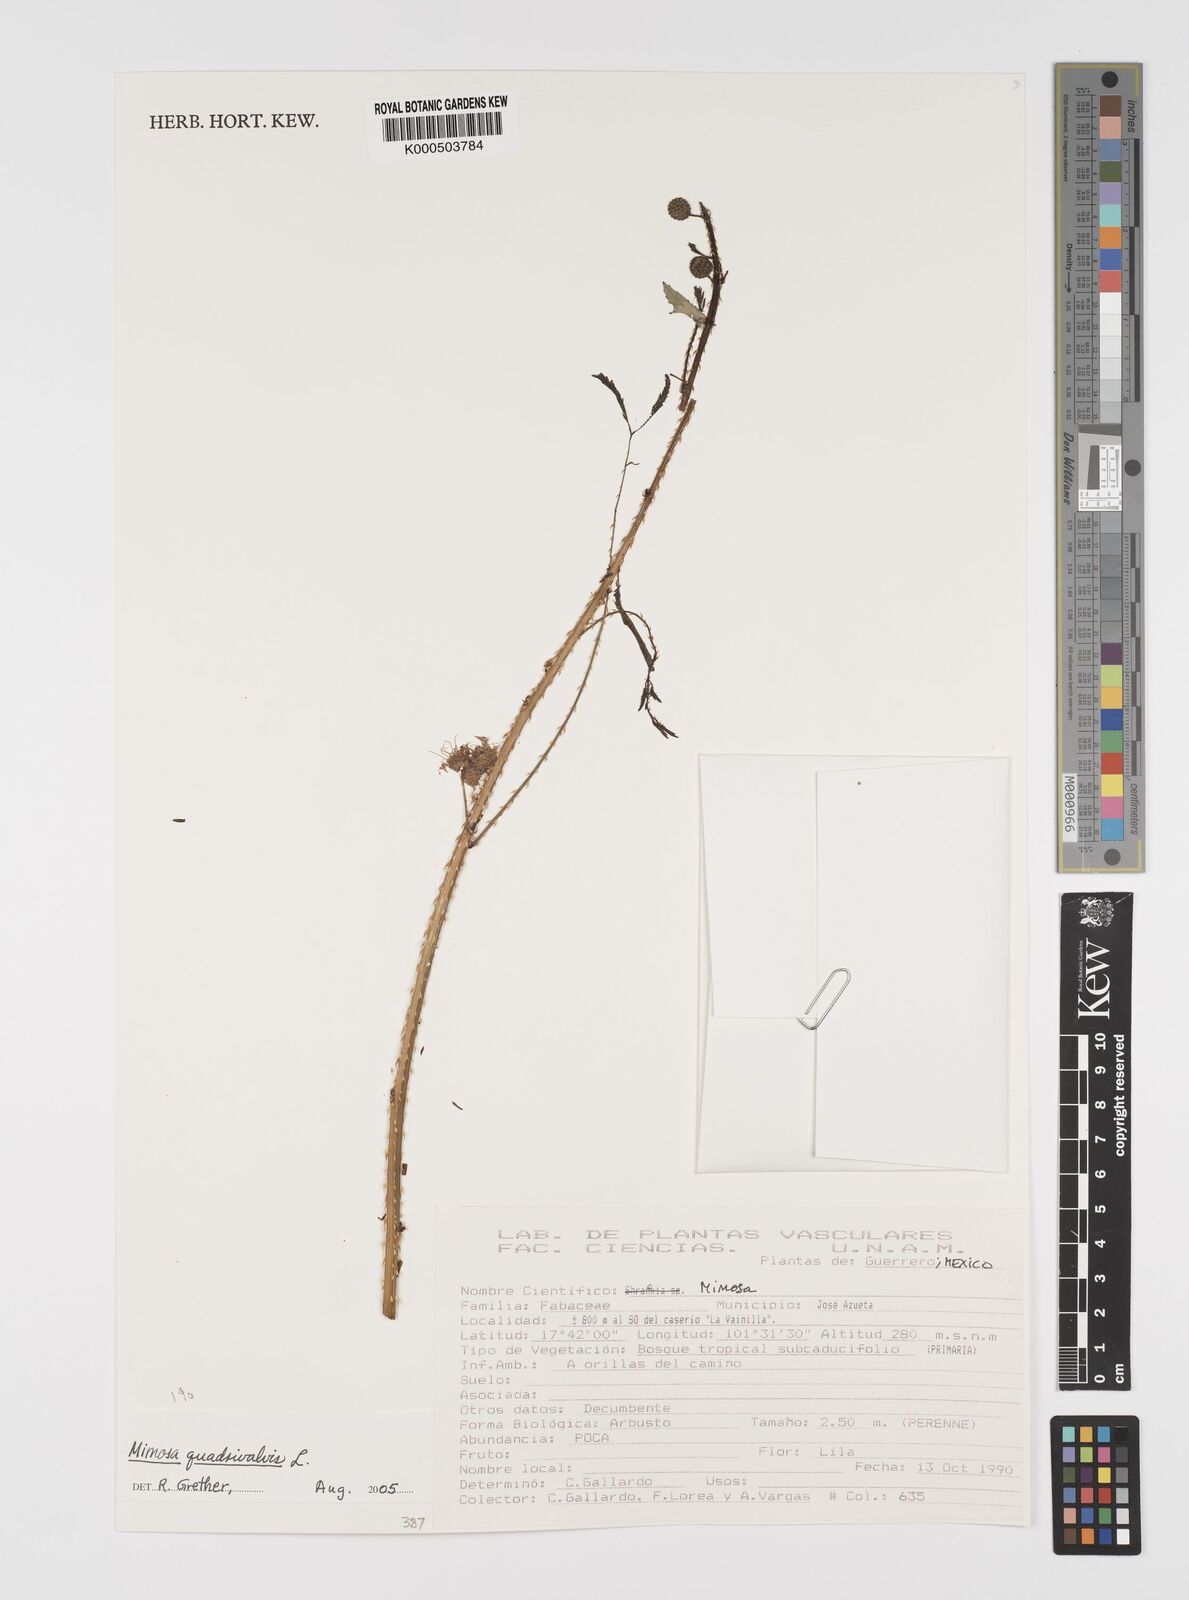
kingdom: Plantae
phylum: Tracheophyta
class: Magnoliopsida
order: Fabales
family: Fabaceae
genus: Mimosa
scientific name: Mimosa quadrivalvis
